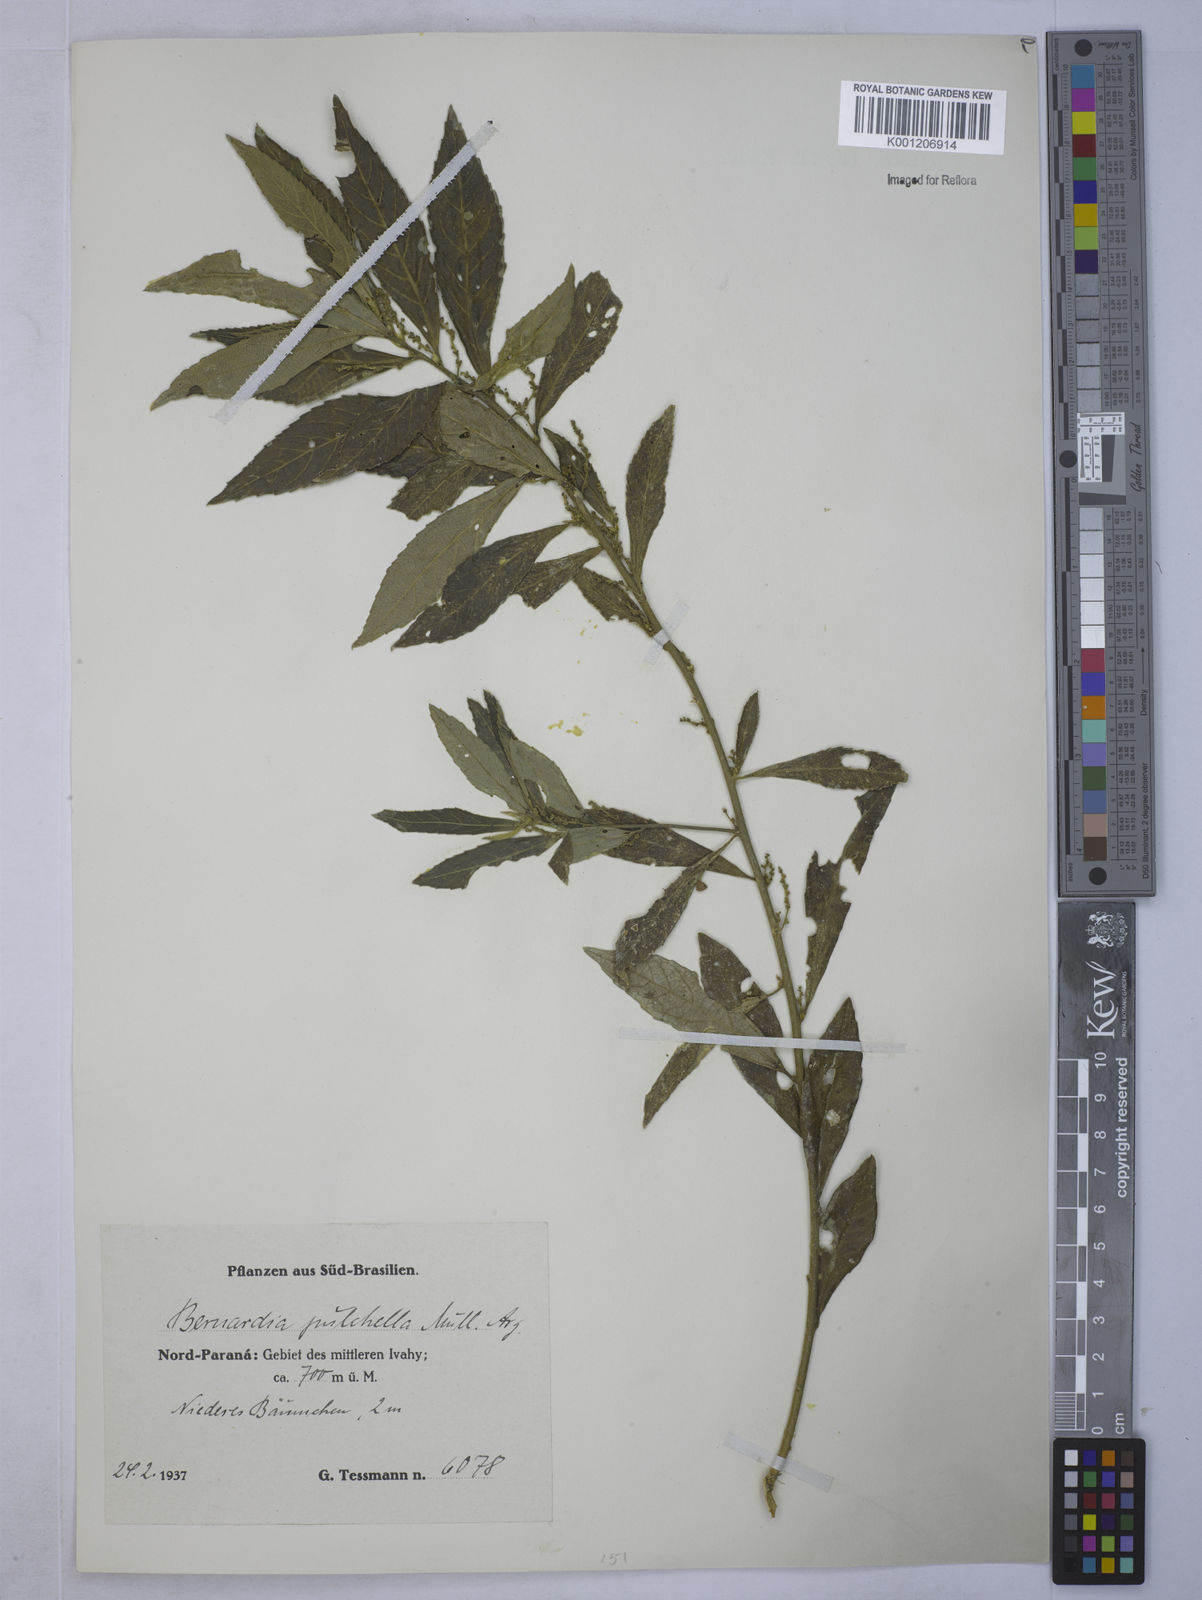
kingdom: Plantae
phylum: Tracheophyta
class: Magnoliopsida
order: Malpighiales
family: Euphorbiaceae
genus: Bernardia
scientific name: Bernardia
